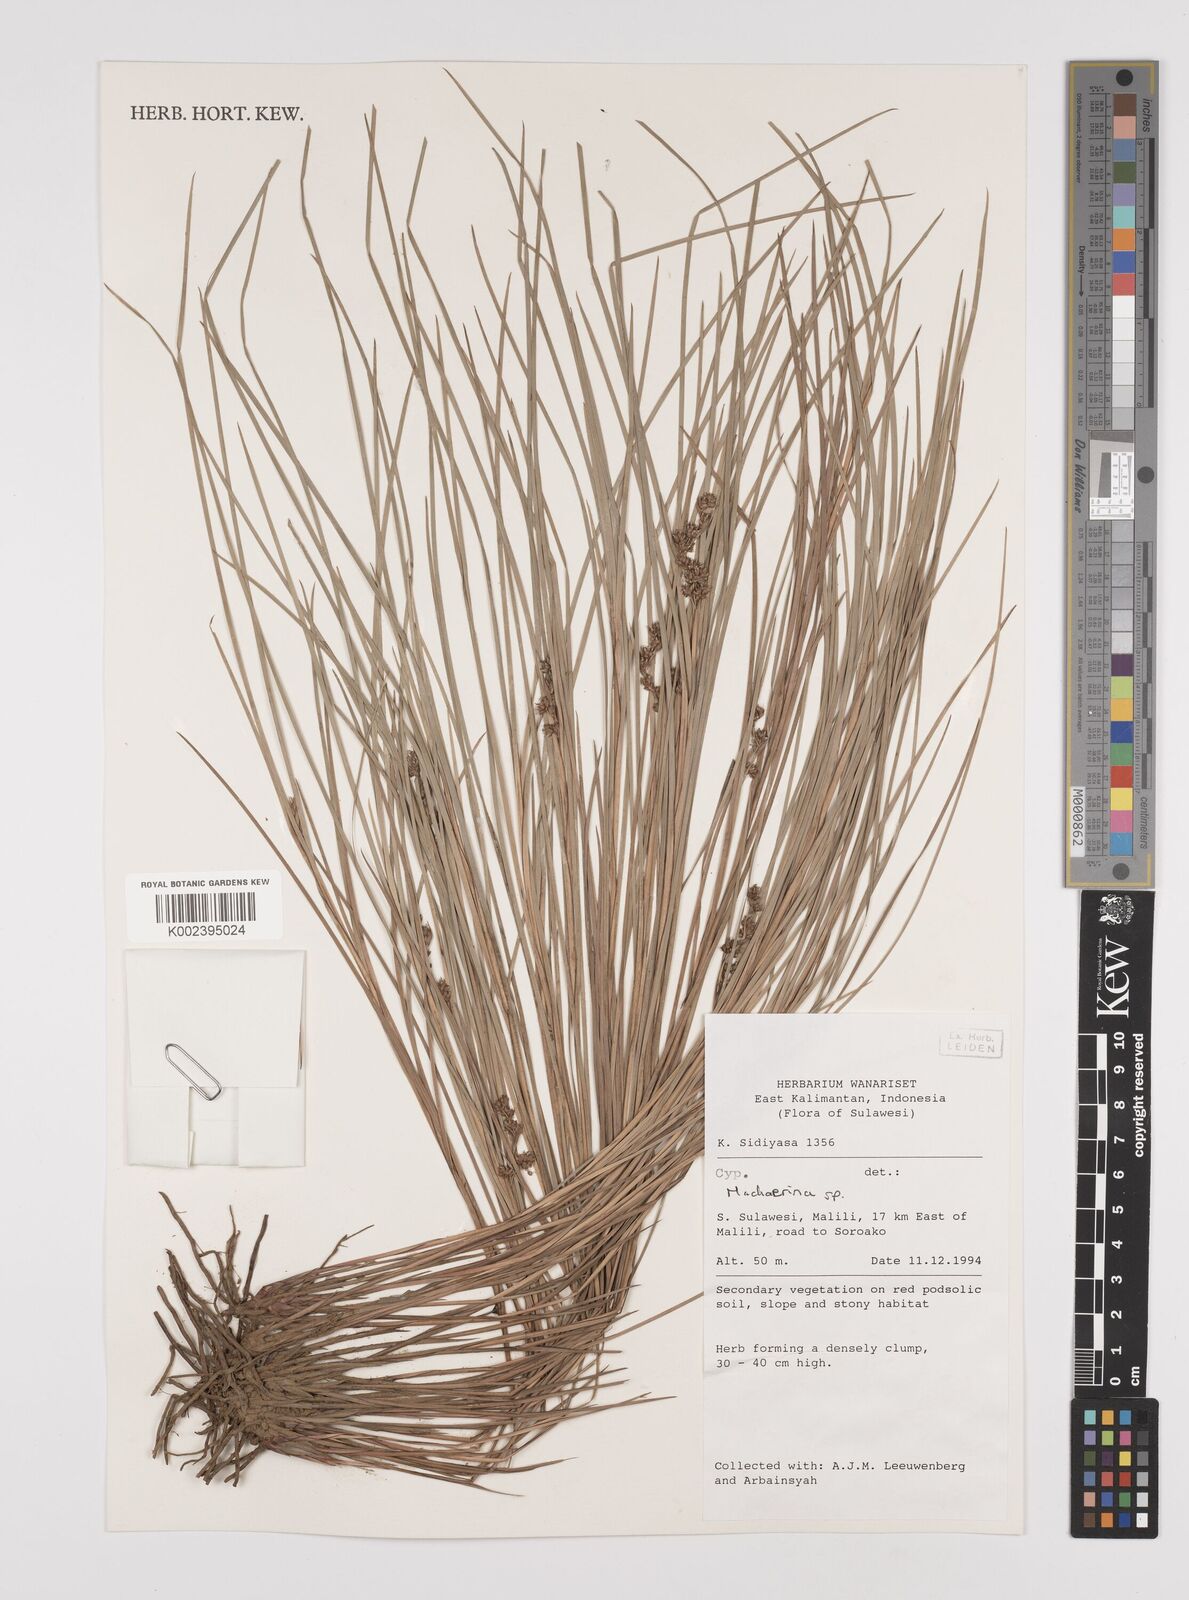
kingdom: Plantae
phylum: Tracheophyta
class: Liliopsida
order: Poales
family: Cyperaceae
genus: Machaerina
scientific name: Machaerina
